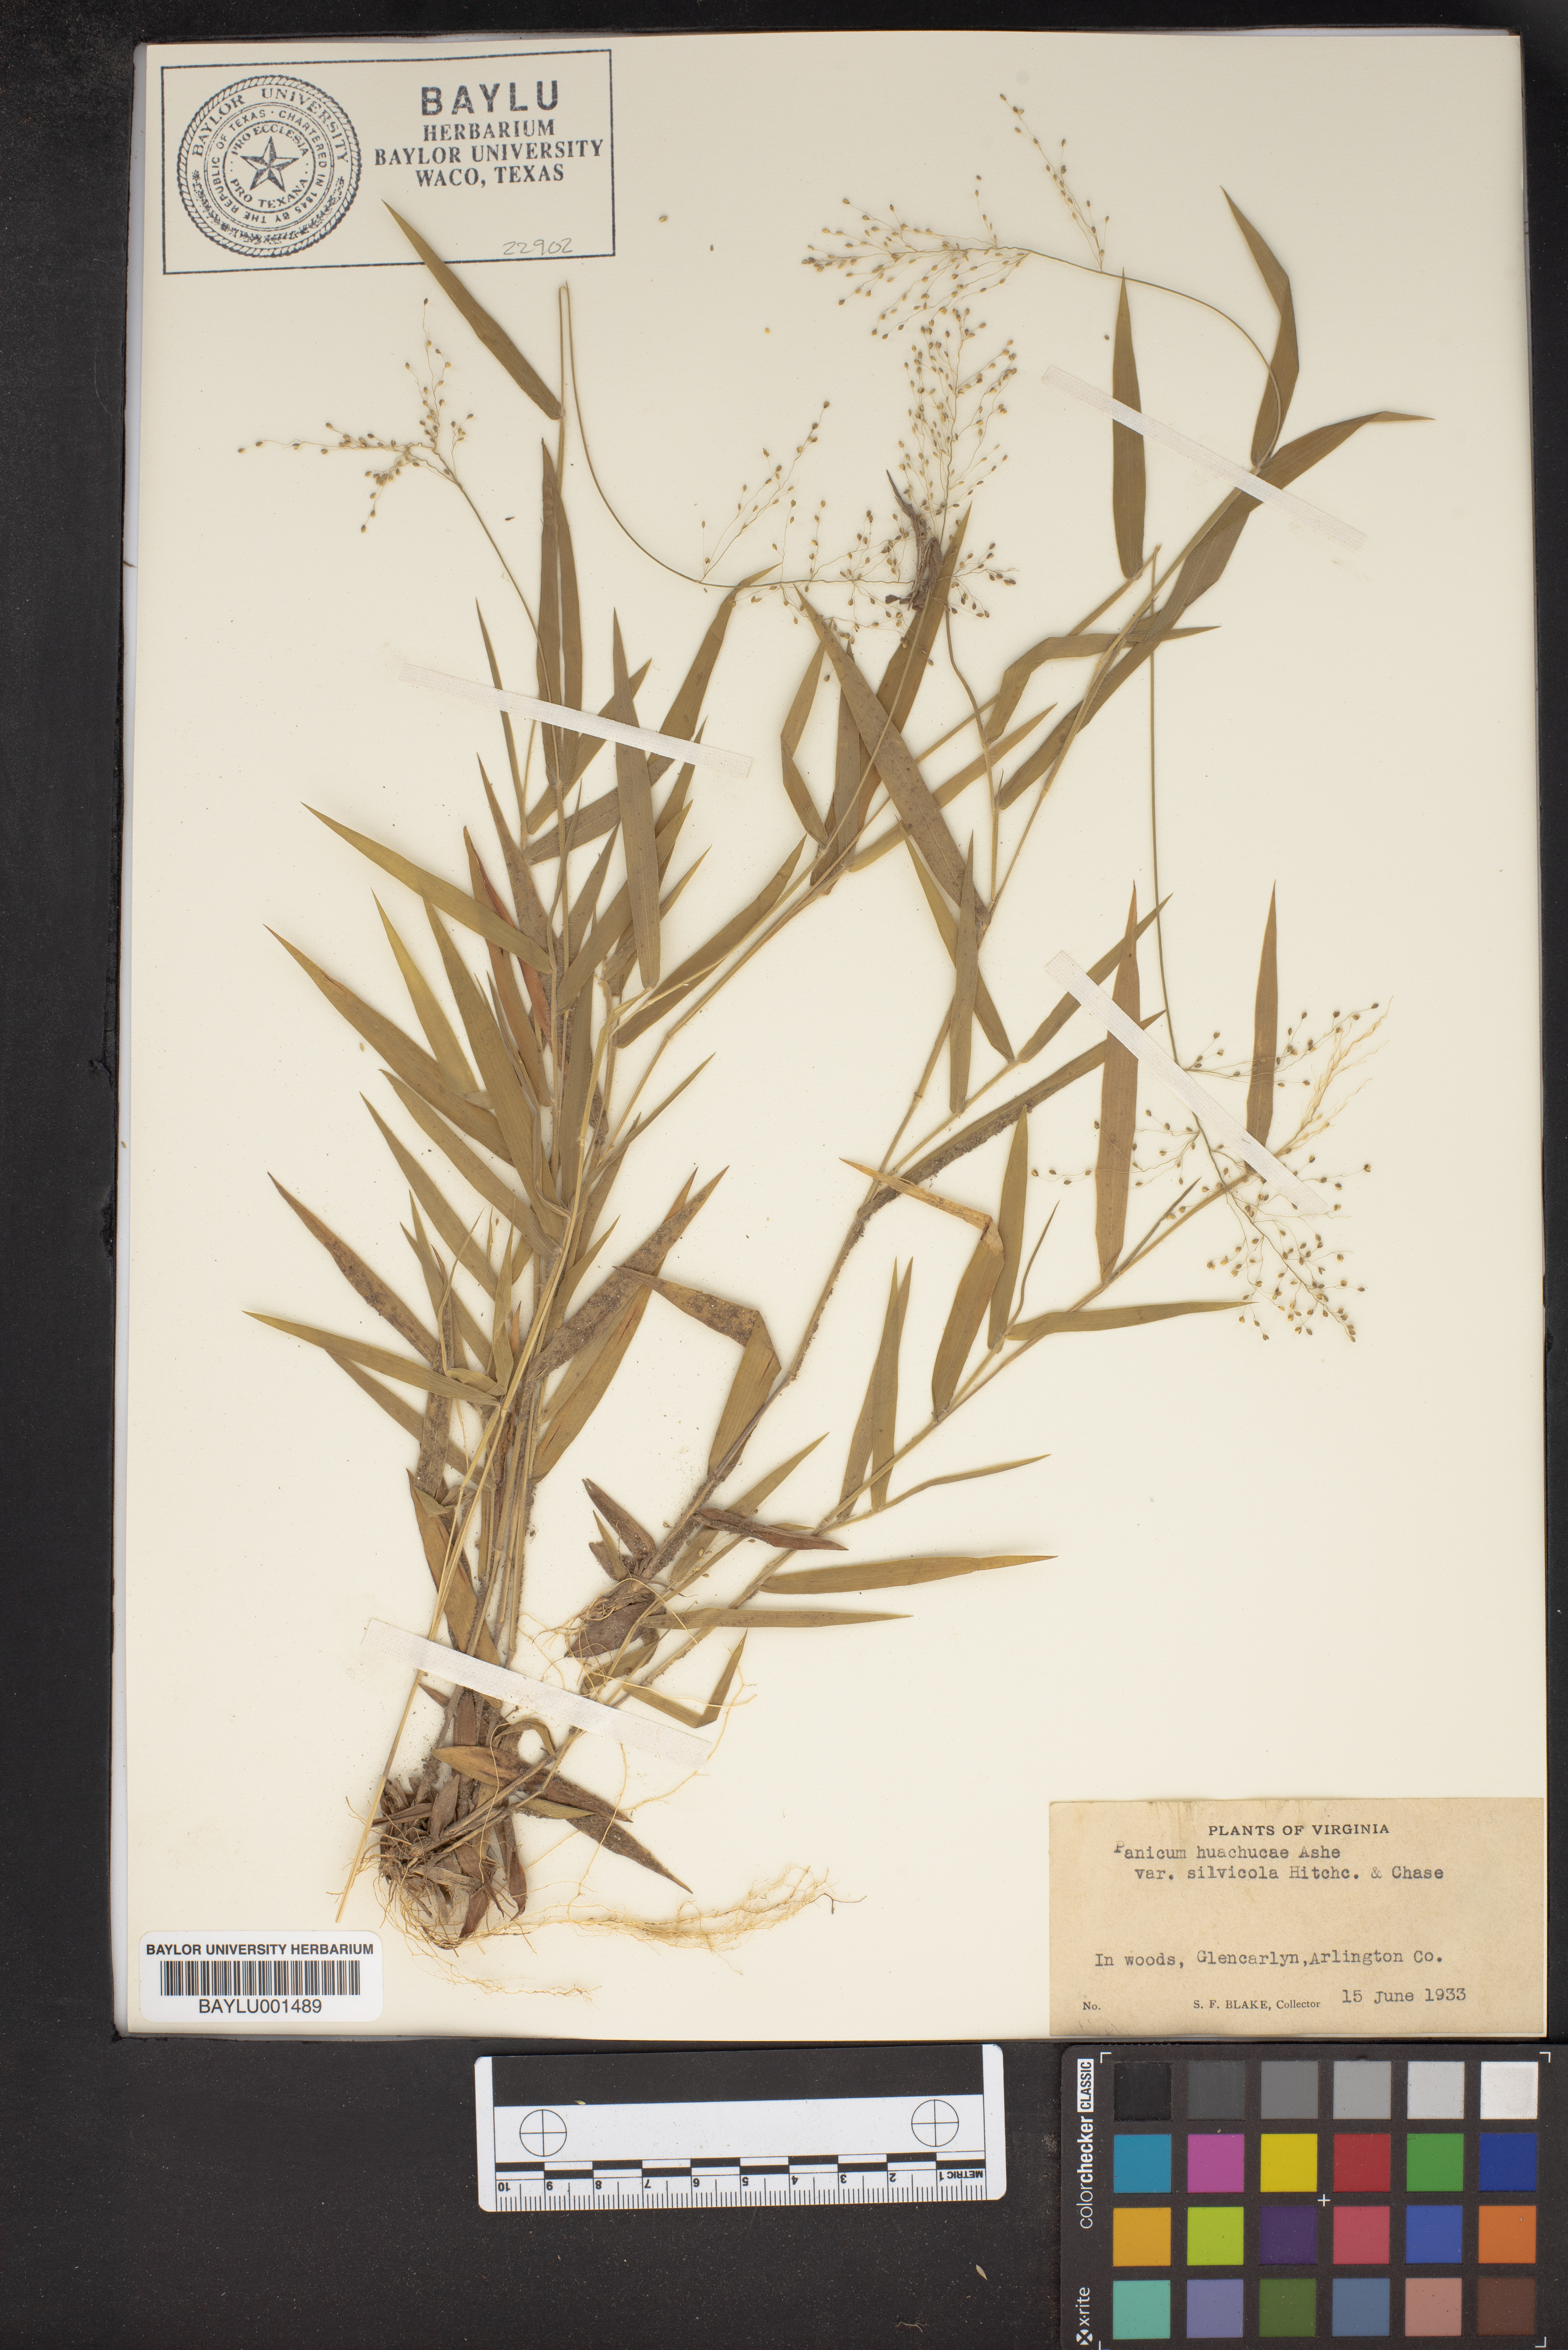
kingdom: Plantae
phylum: Tracheophyta
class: Liliopsida
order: Poales
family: Poaceae
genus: Dichanthelium
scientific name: Dichanthelium lanuginosum
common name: Woolly panicgrass
